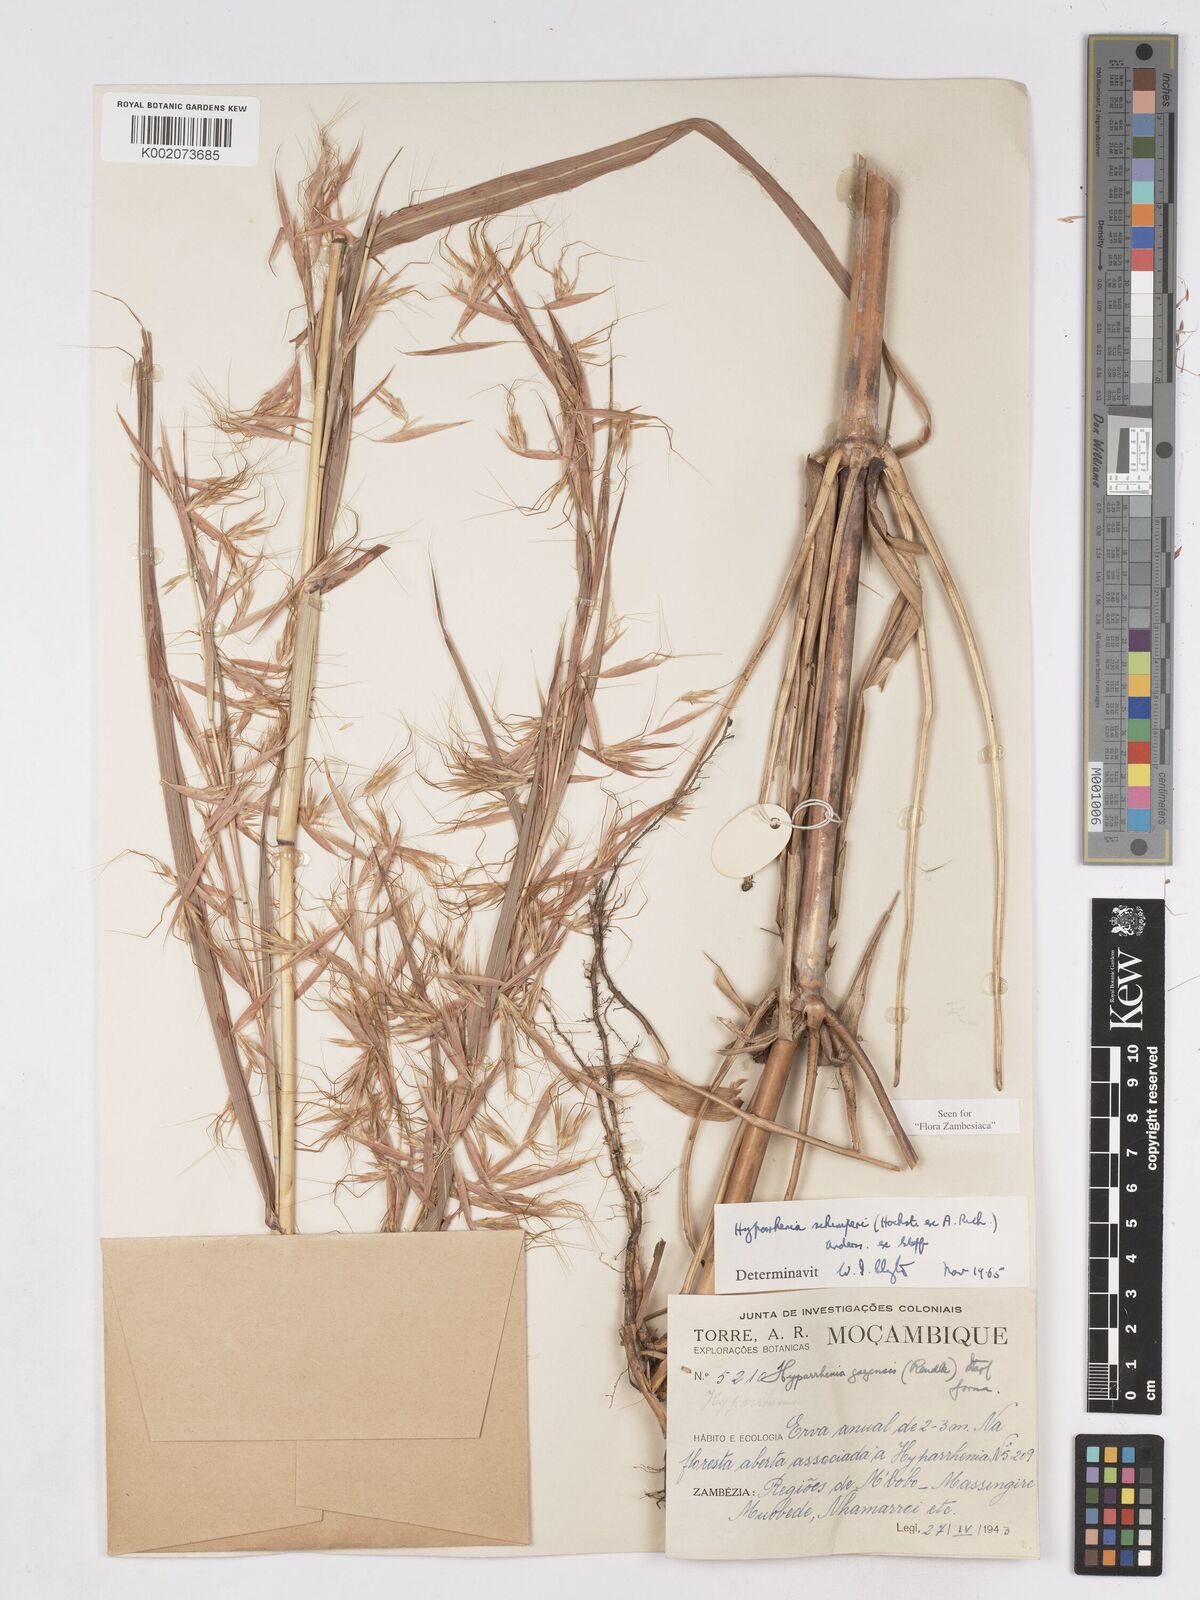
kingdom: Plantae
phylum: Tracheophyta
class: Liliopsida
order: Poales
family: Poaceae
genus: Hyparrhenia
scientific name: Hyparrhenia schimperi
